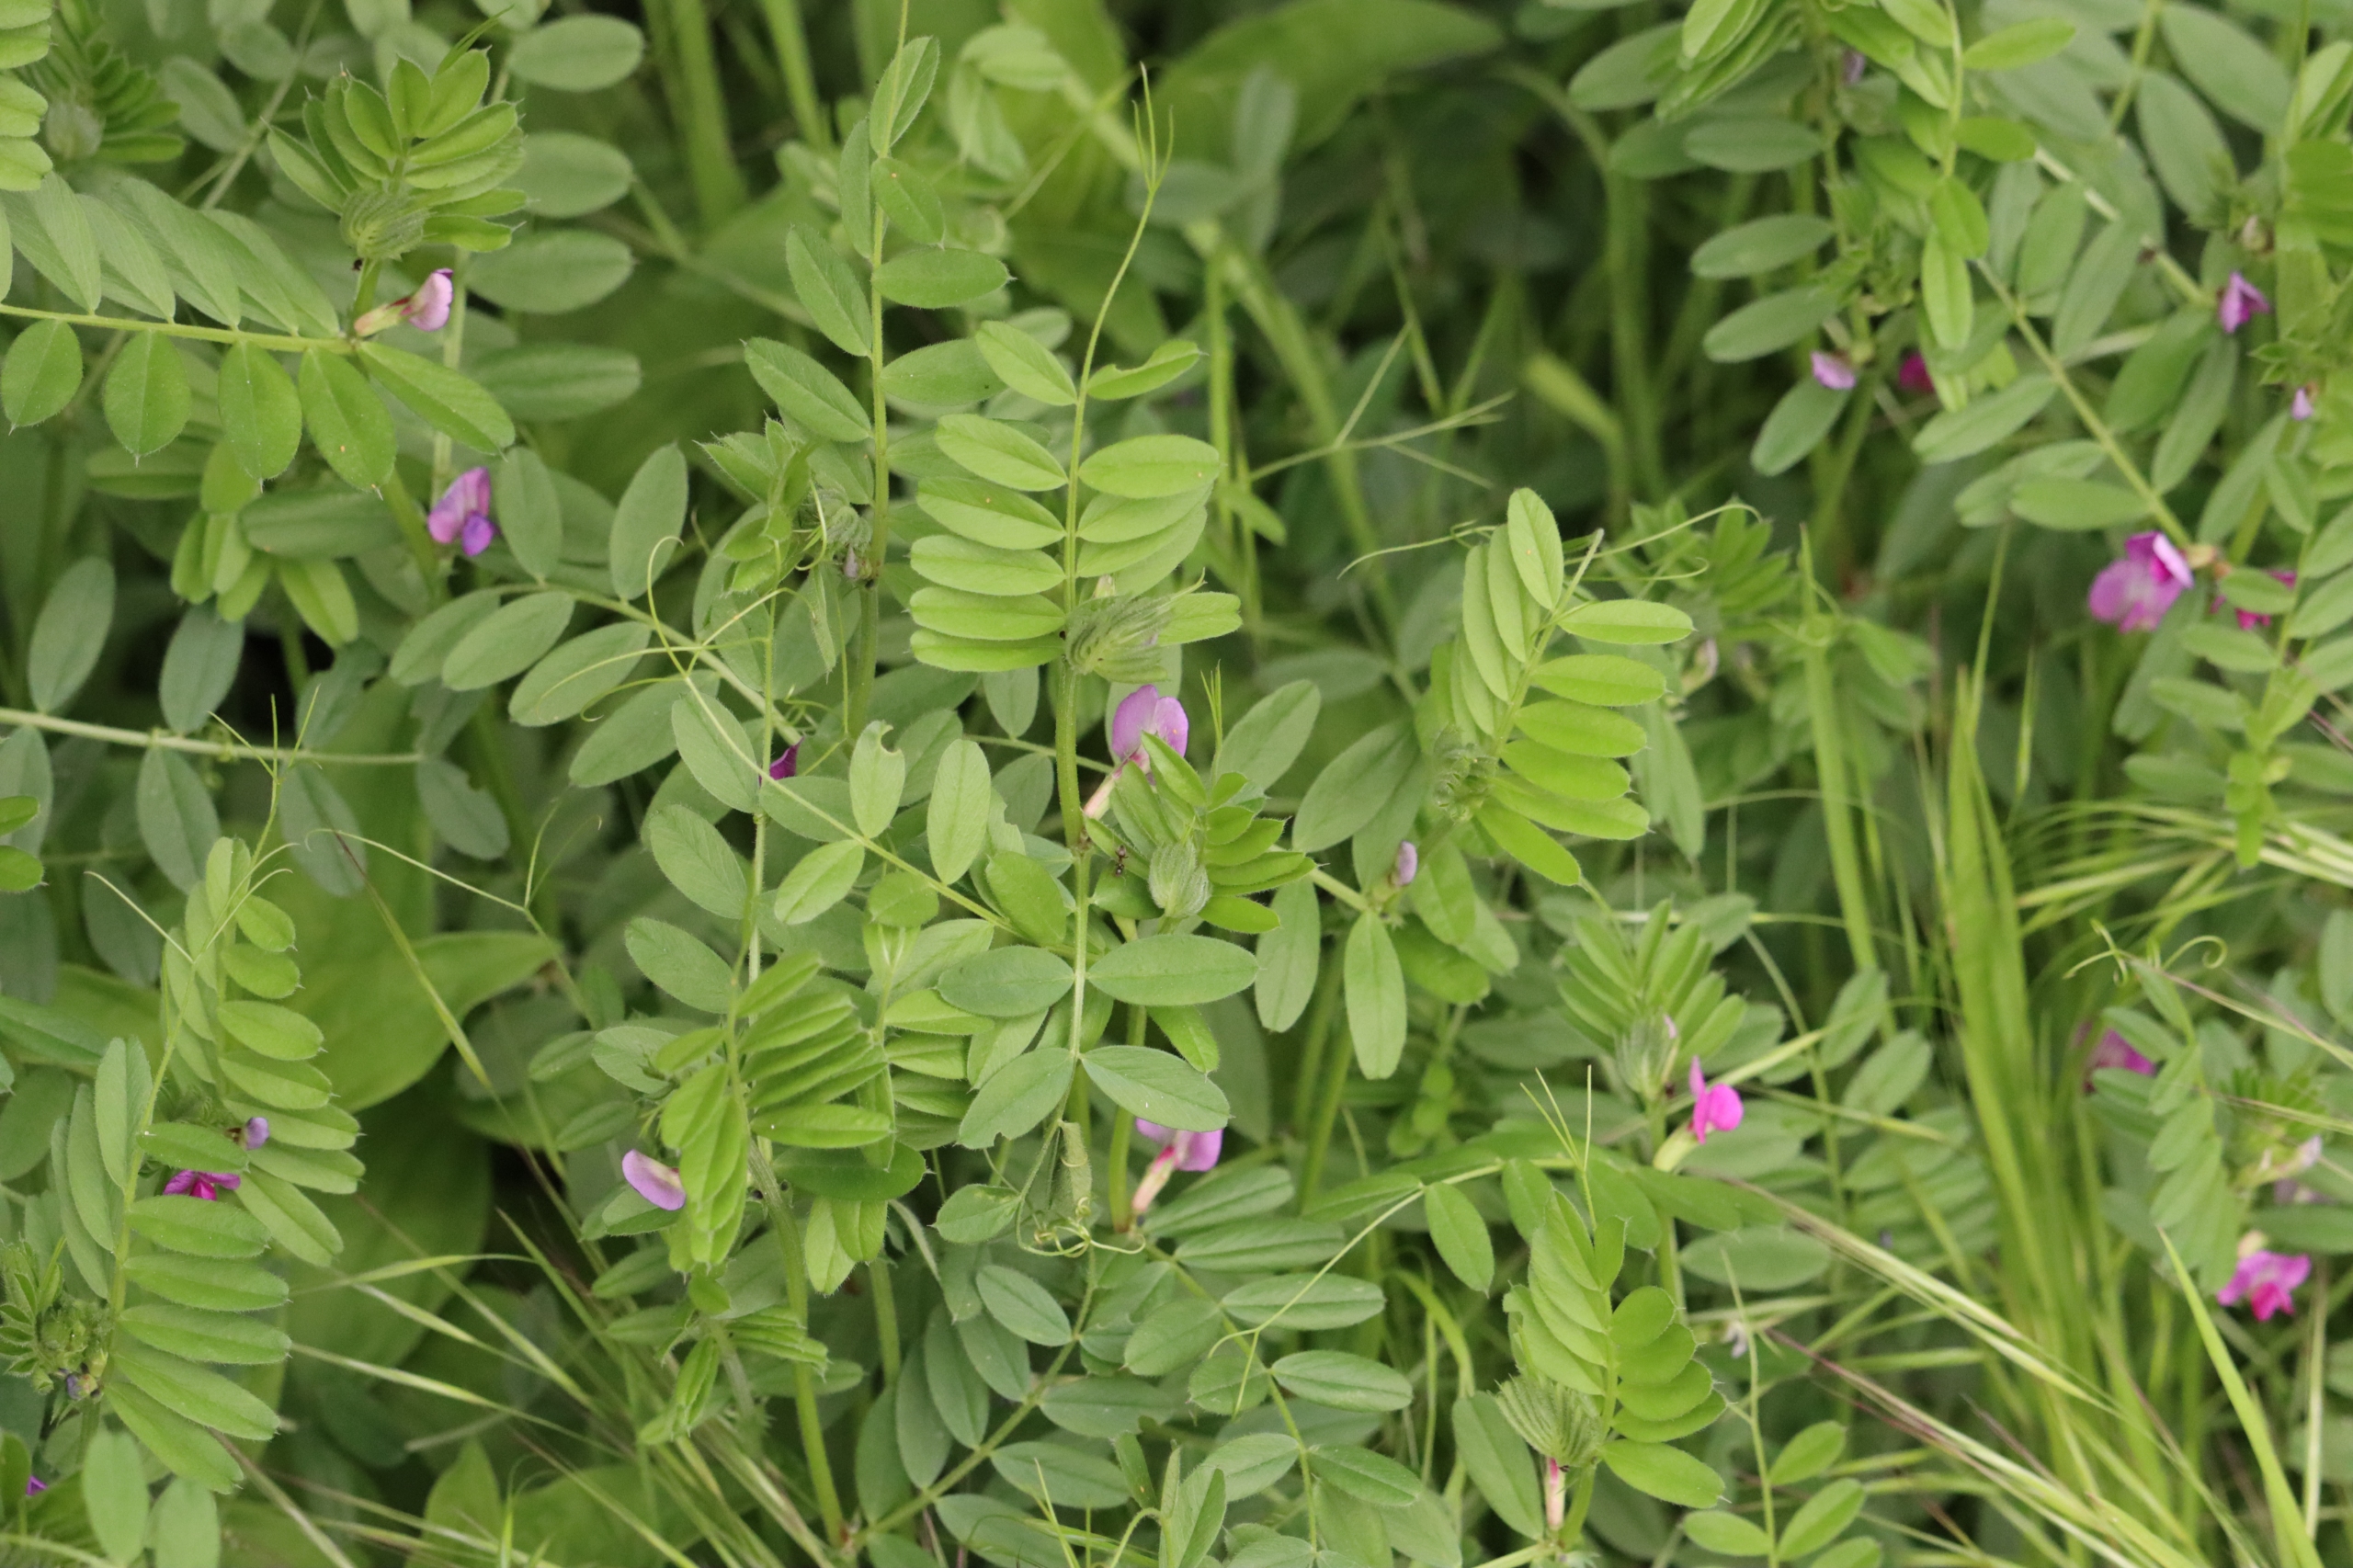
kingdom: Plantae
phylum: Tracheophyta
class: Magnoliopsida
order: Fabales
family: Fabaceae
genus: Vicia
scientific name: Vicia sativa
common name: Foder-vikke
